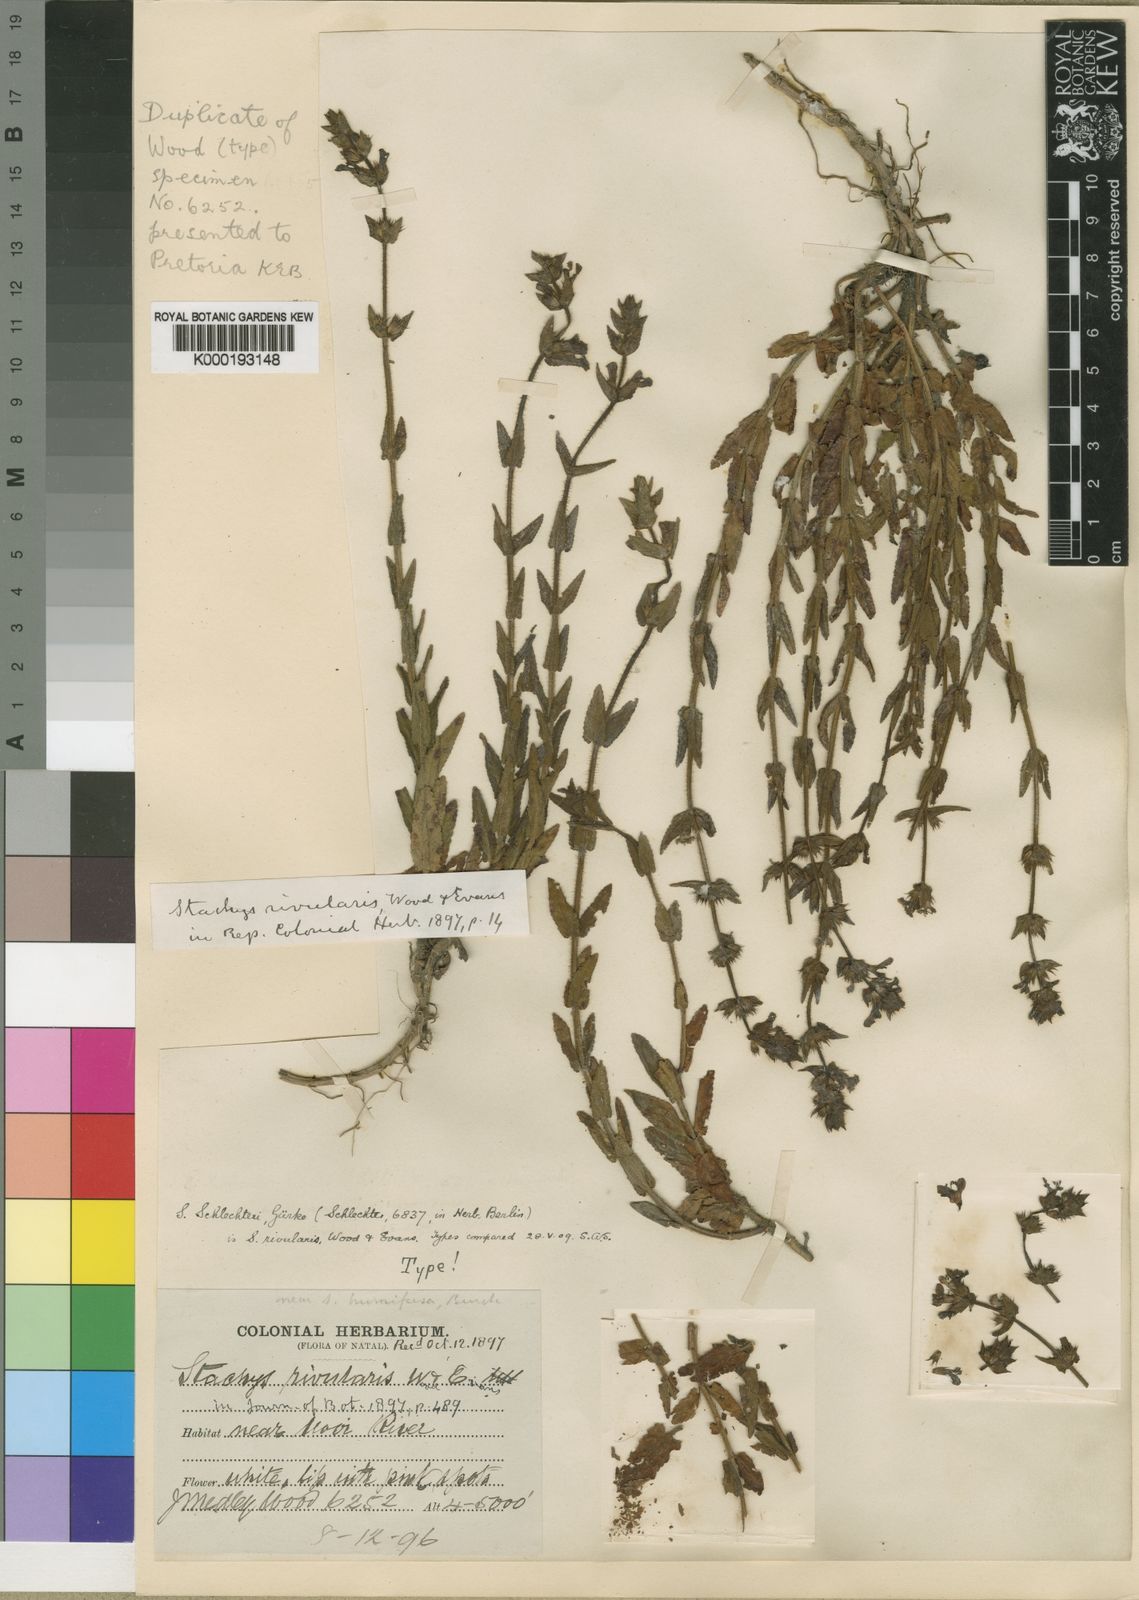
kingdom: Plantae
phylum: Tracheophyta
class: Magnoliopsida
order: Lamiales
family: Lamiaceae
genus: Stachys
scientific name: Stachys rivularis
